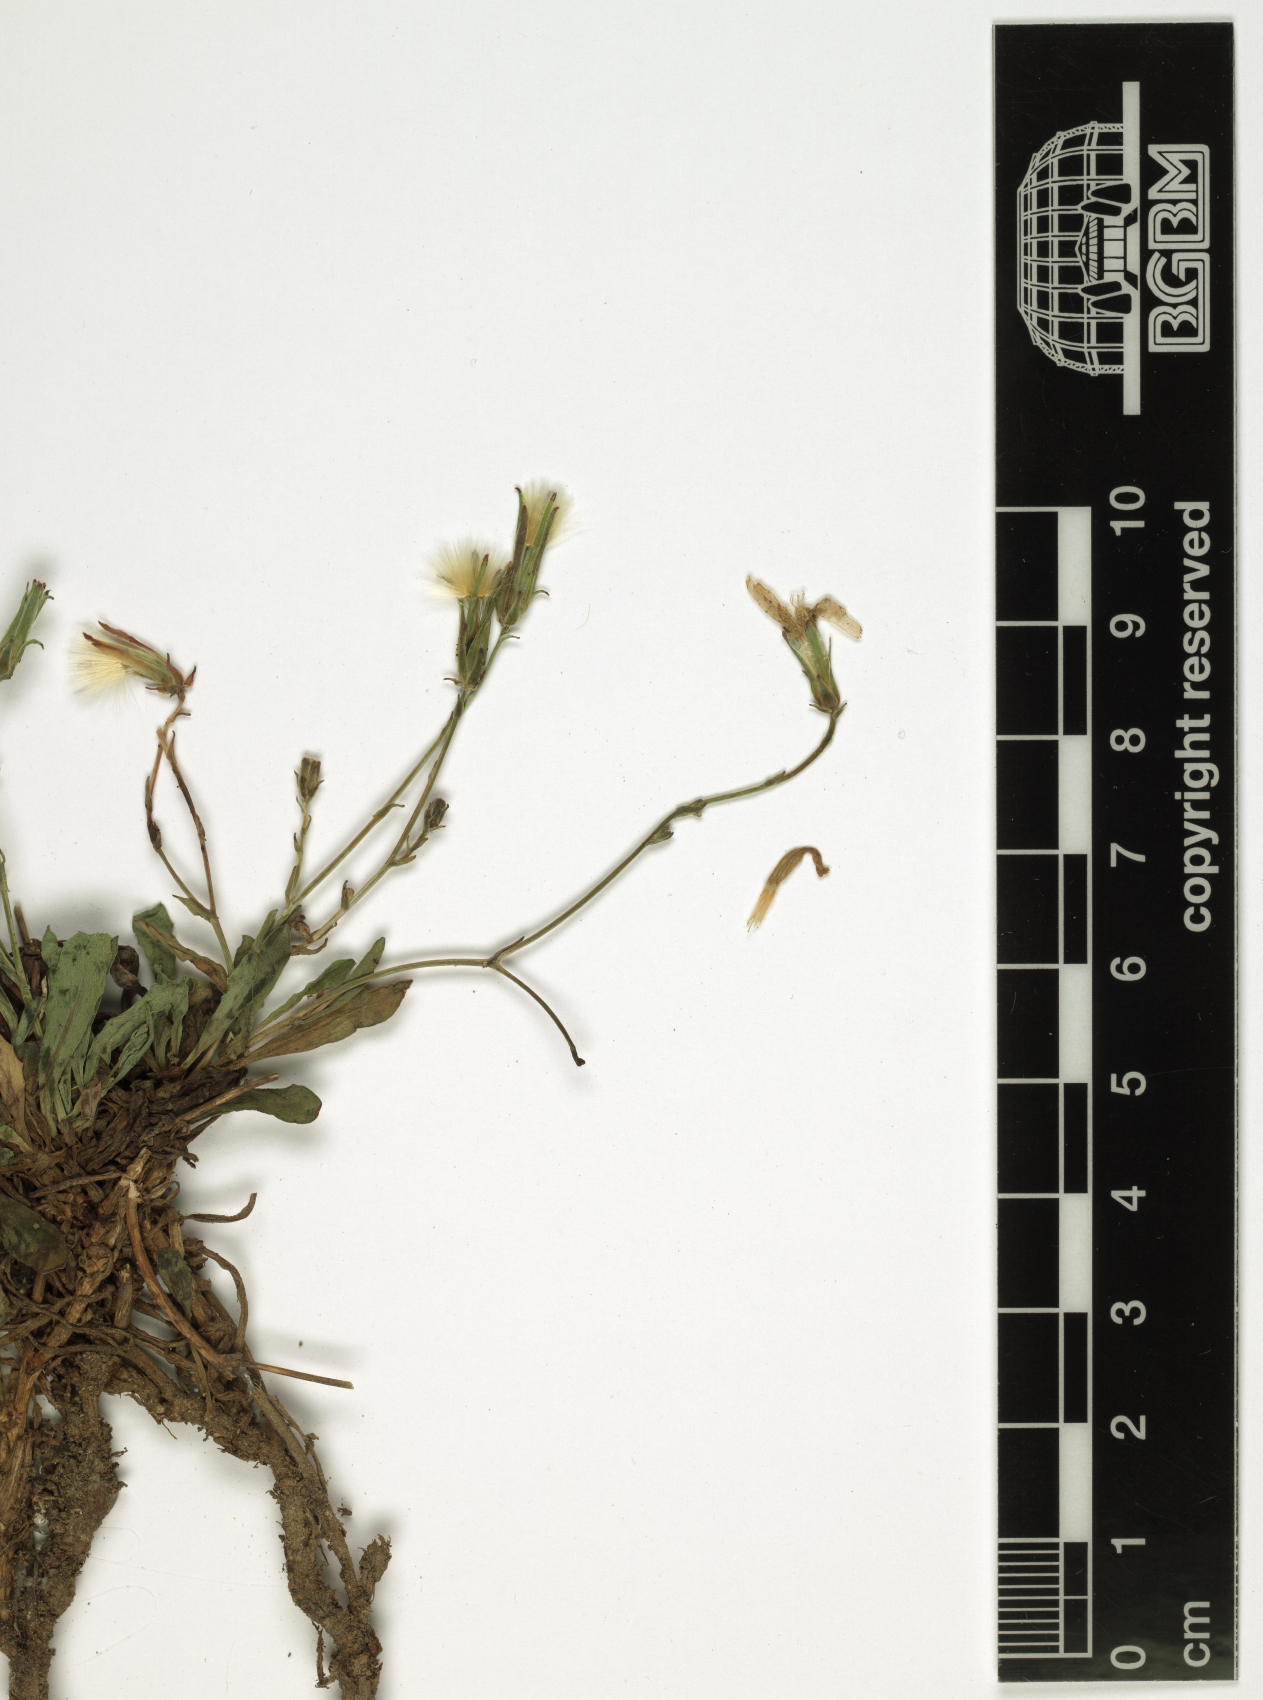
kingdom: Plantae
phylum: Tracheophyta
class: Magnoliopsida
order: Asterales
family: Asteraceae
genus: Lactuca
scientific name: Lactuca inermis
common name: Wild lettuce
